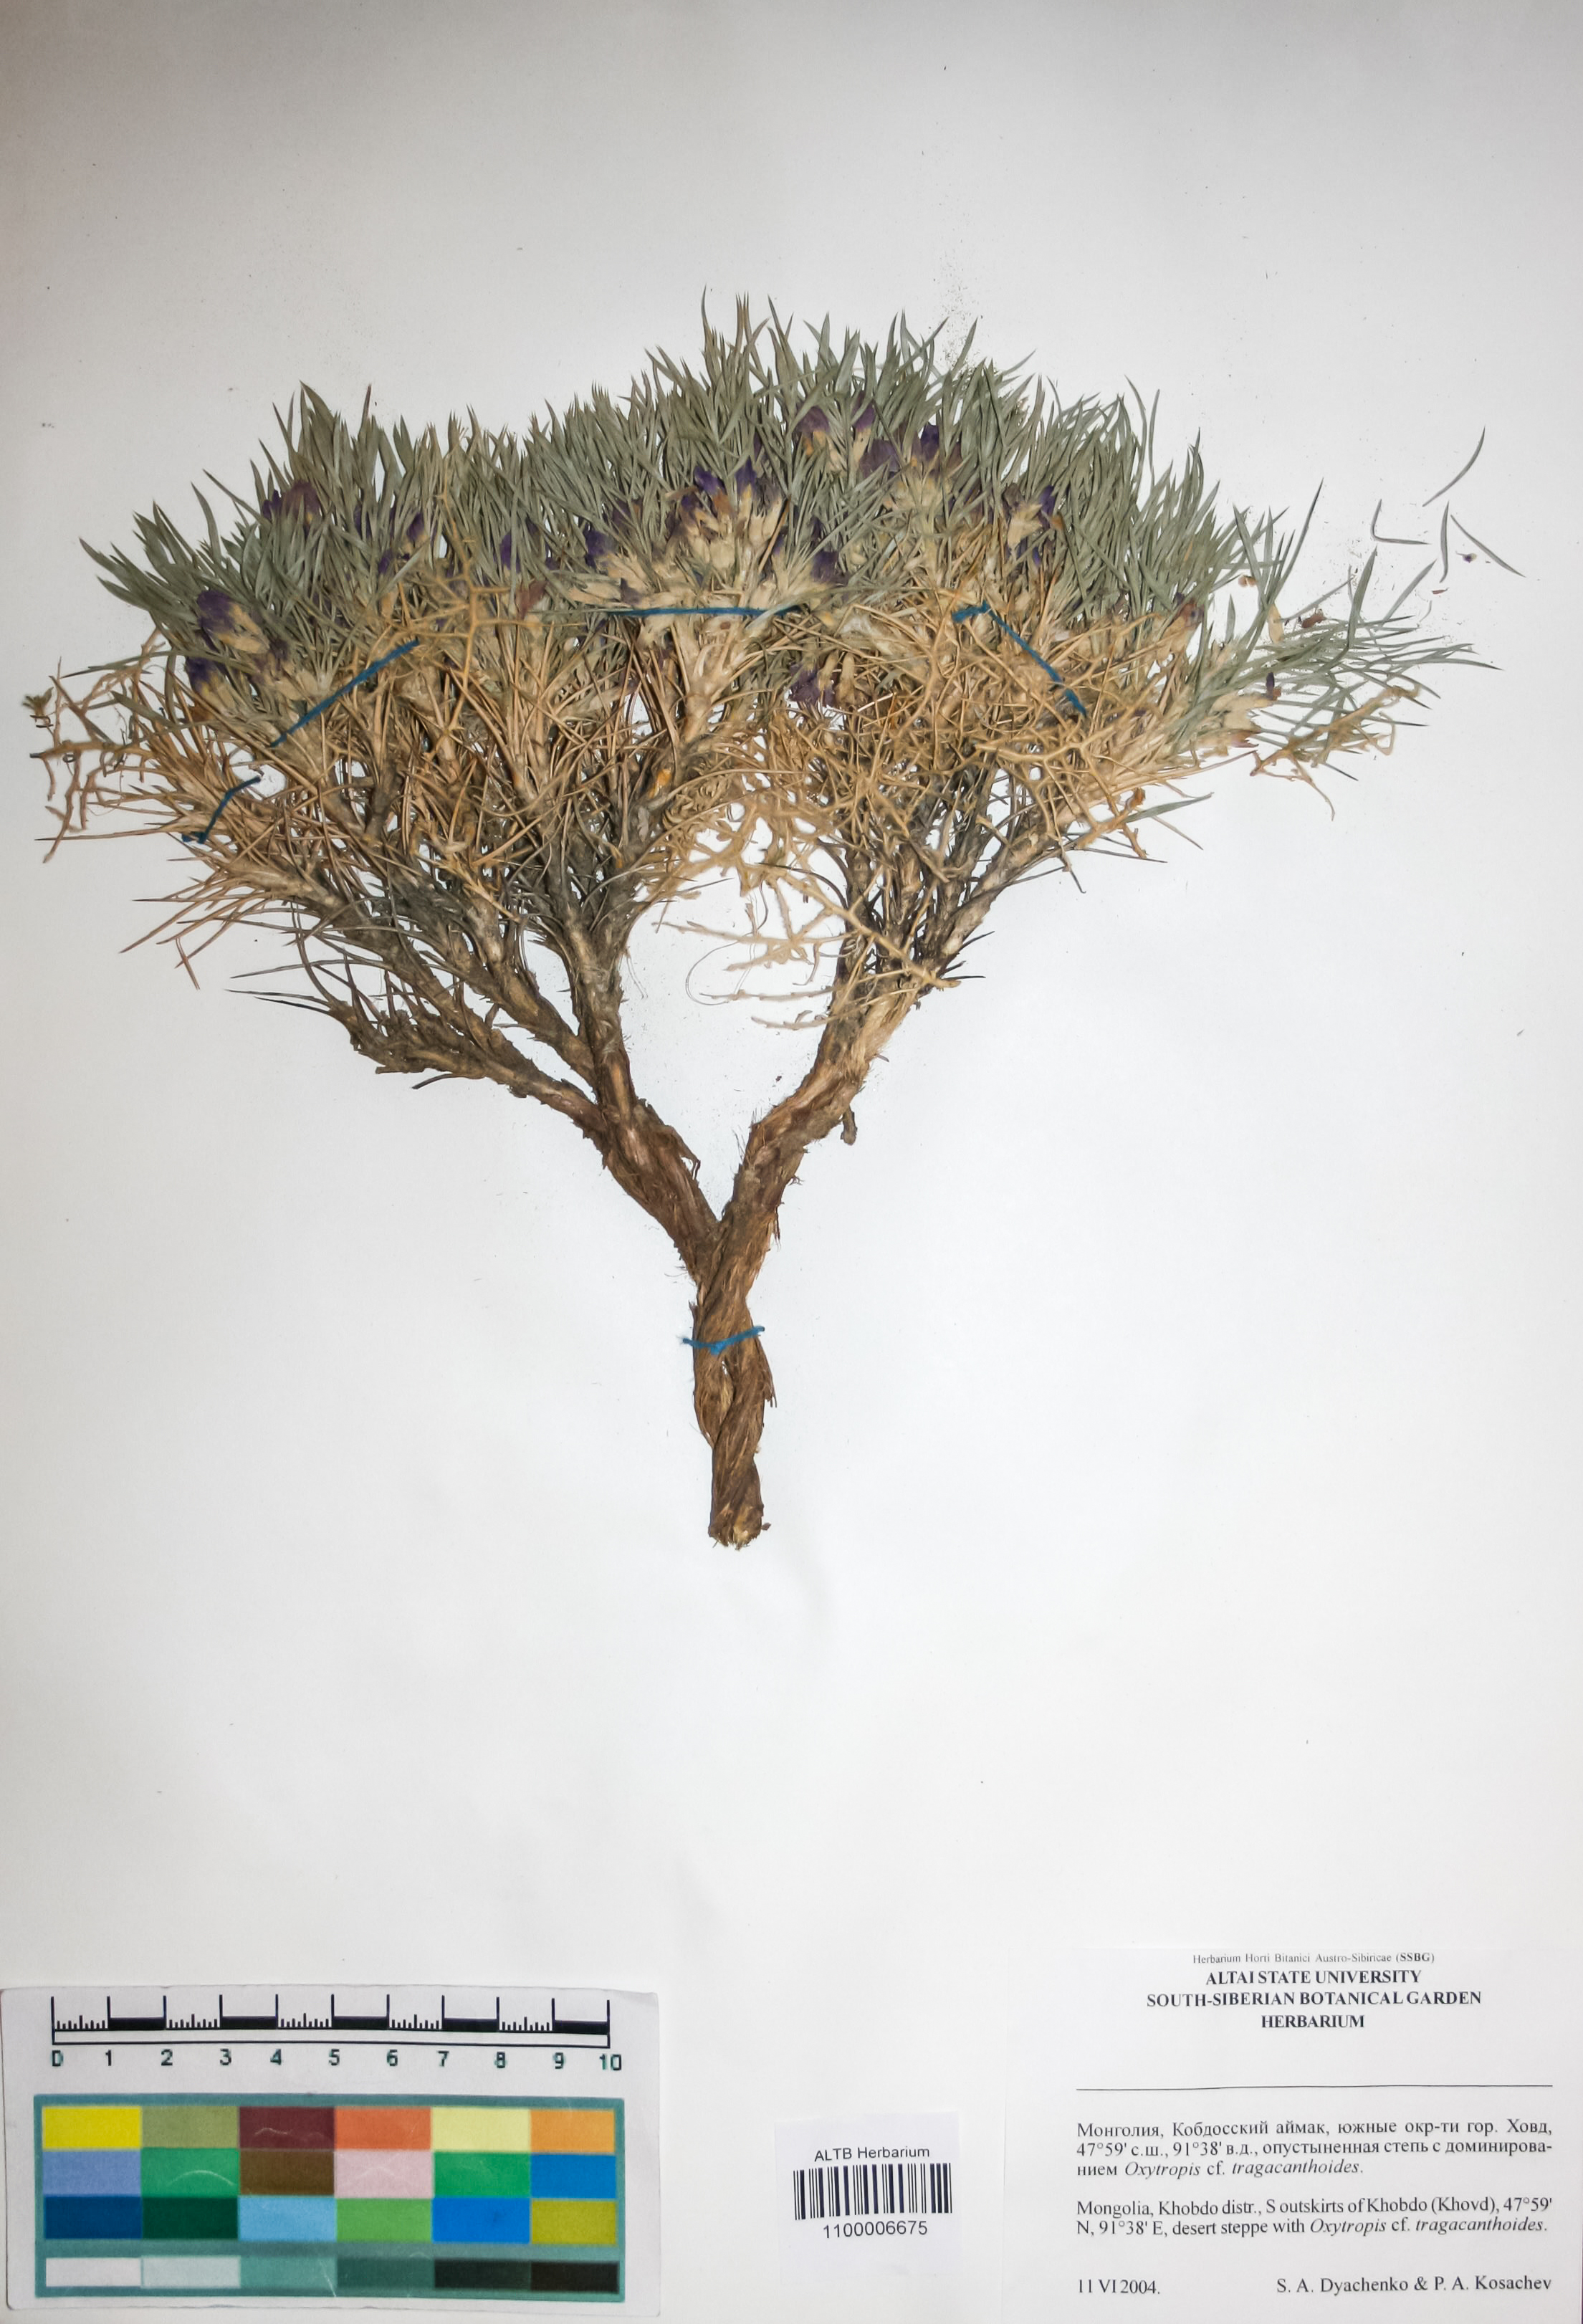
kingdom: Plantae
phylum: Tracheophyta
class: Magnoliopsida
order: Fabales
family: Fabaceae
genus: Oxytropis
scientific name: Oxytropis aciphylla
